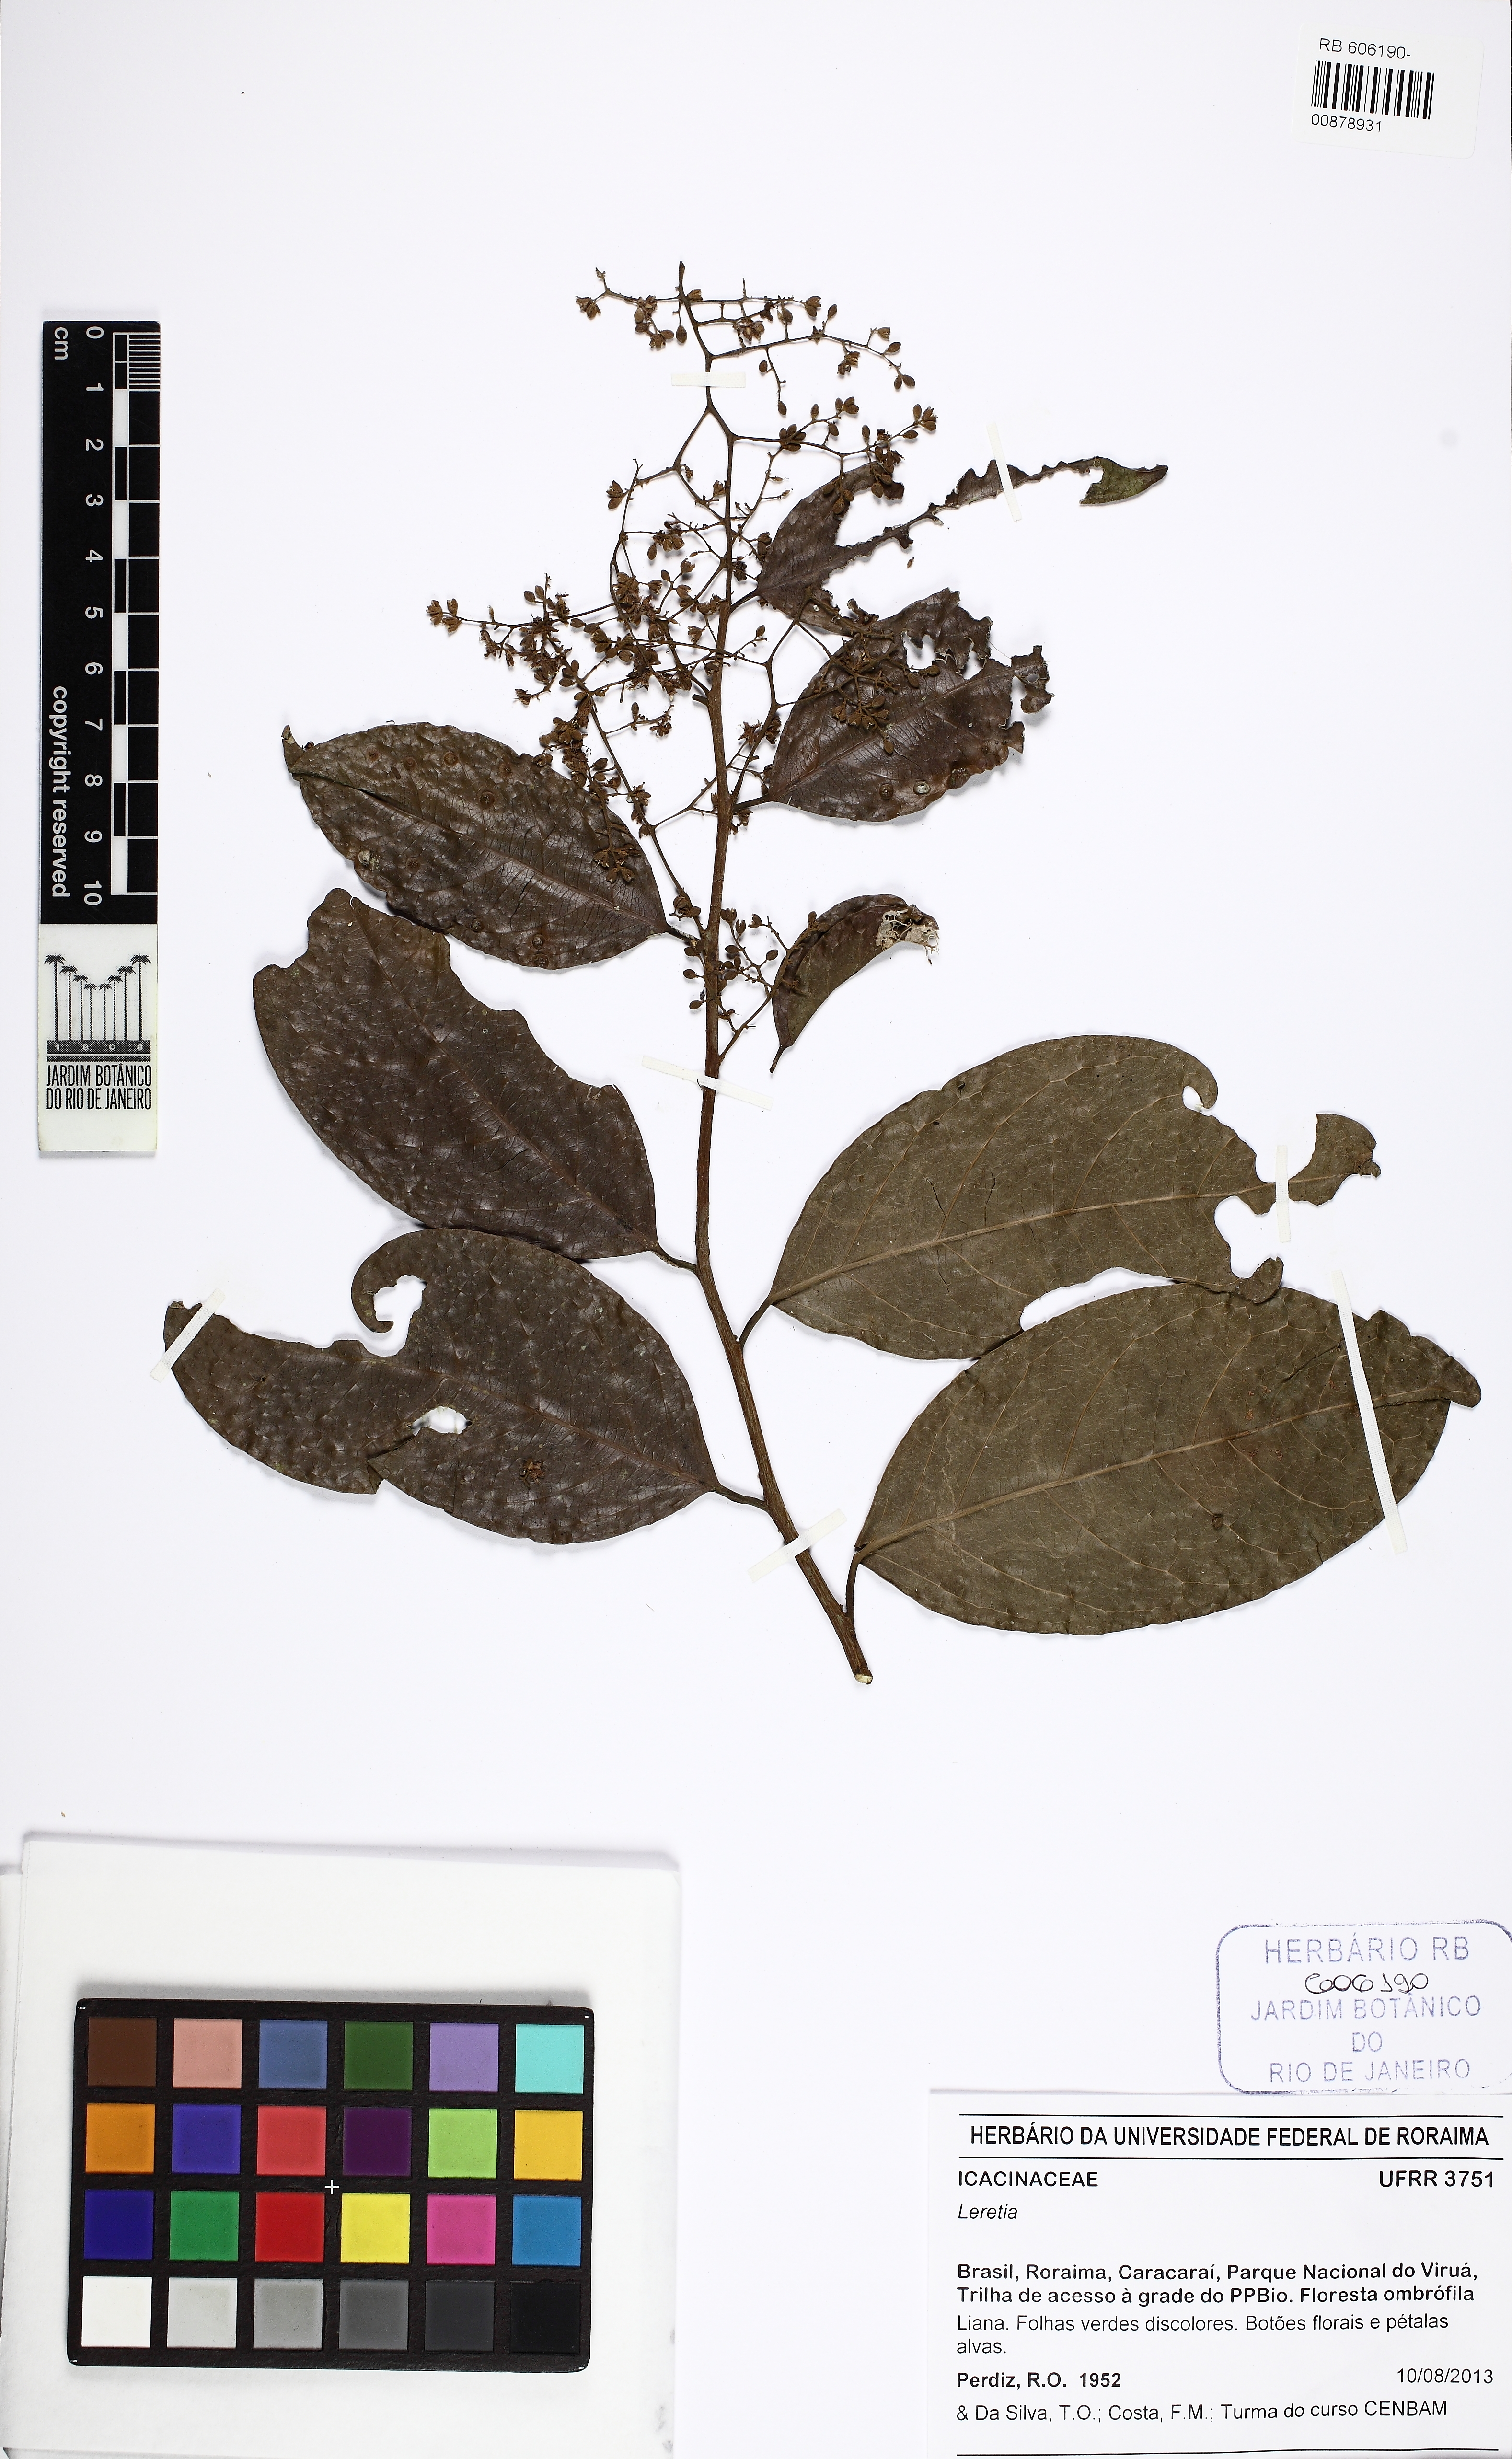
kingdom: Plantae
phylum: Tracheophyta
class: Magnoliopsida
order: Icacinales
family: Icacinaceae
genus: Leretia
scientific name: Leretia
